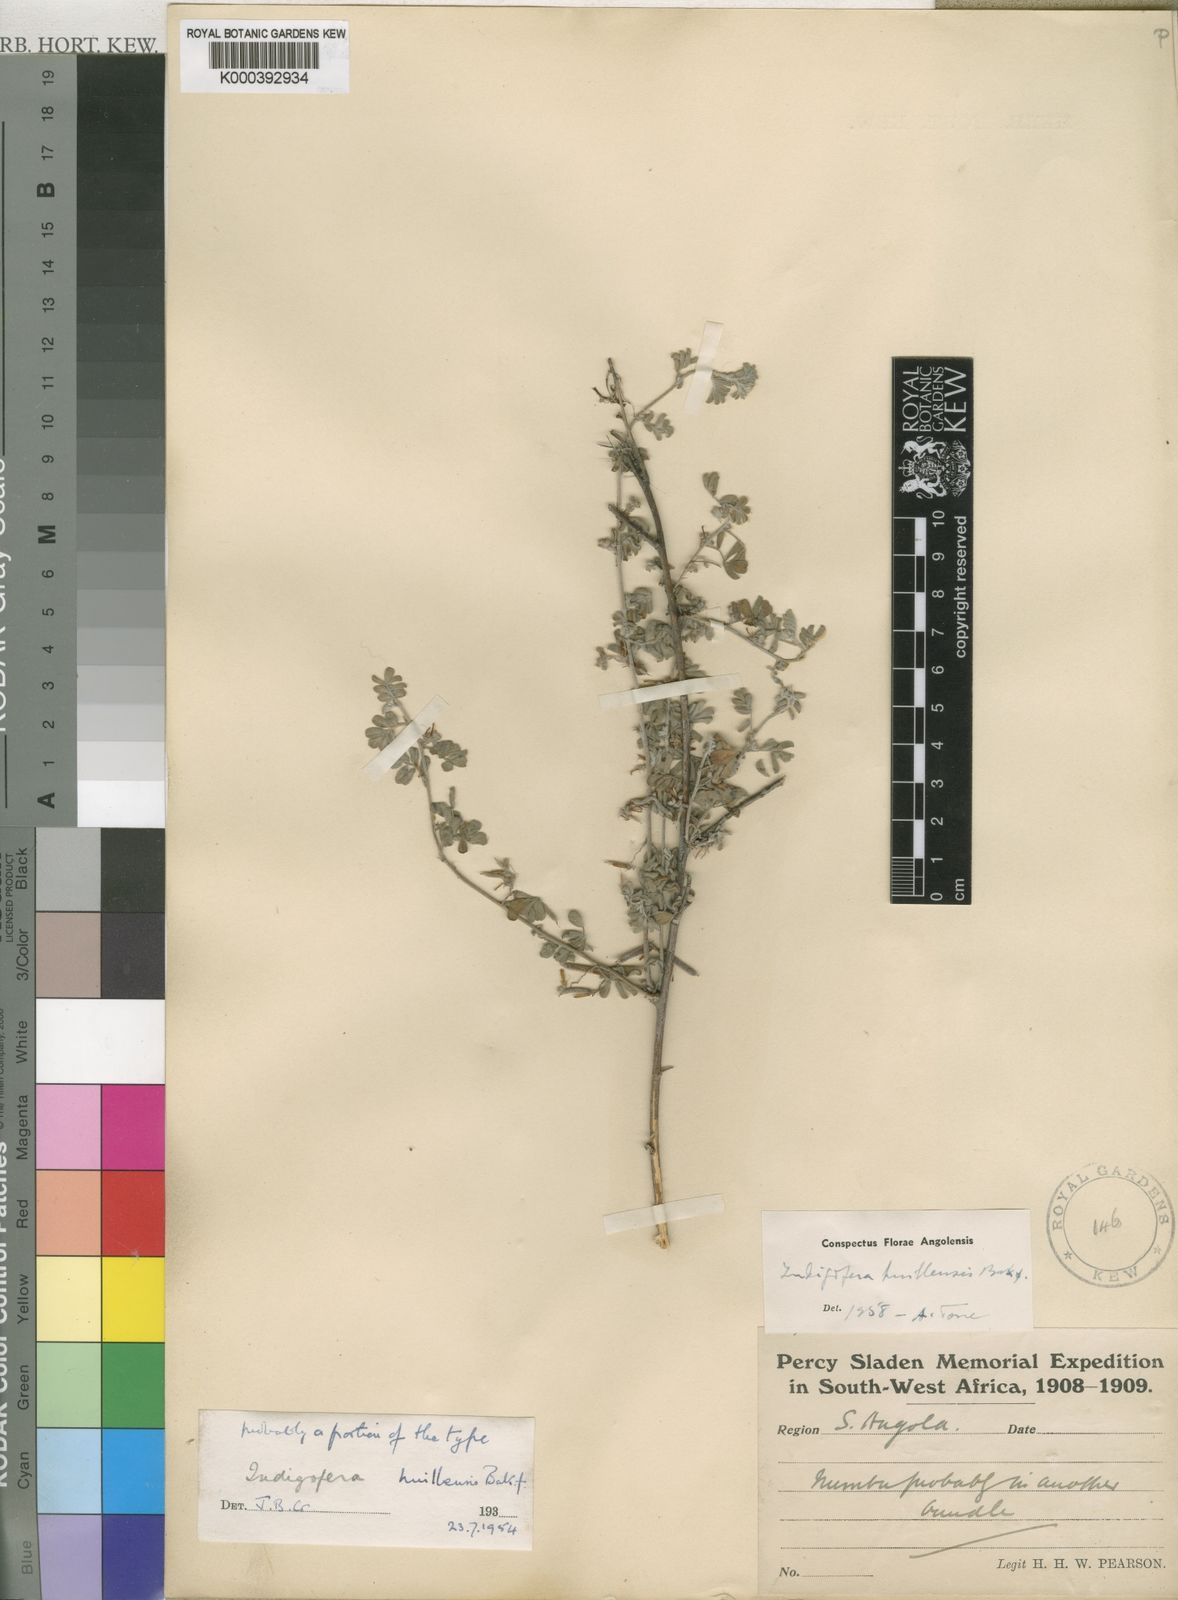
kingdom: Plantae
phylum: Tracheophyta
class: Magnoliopsida
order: Fabales
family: Fabaceae
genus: Indigofera
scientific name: Indigofera huillensis
